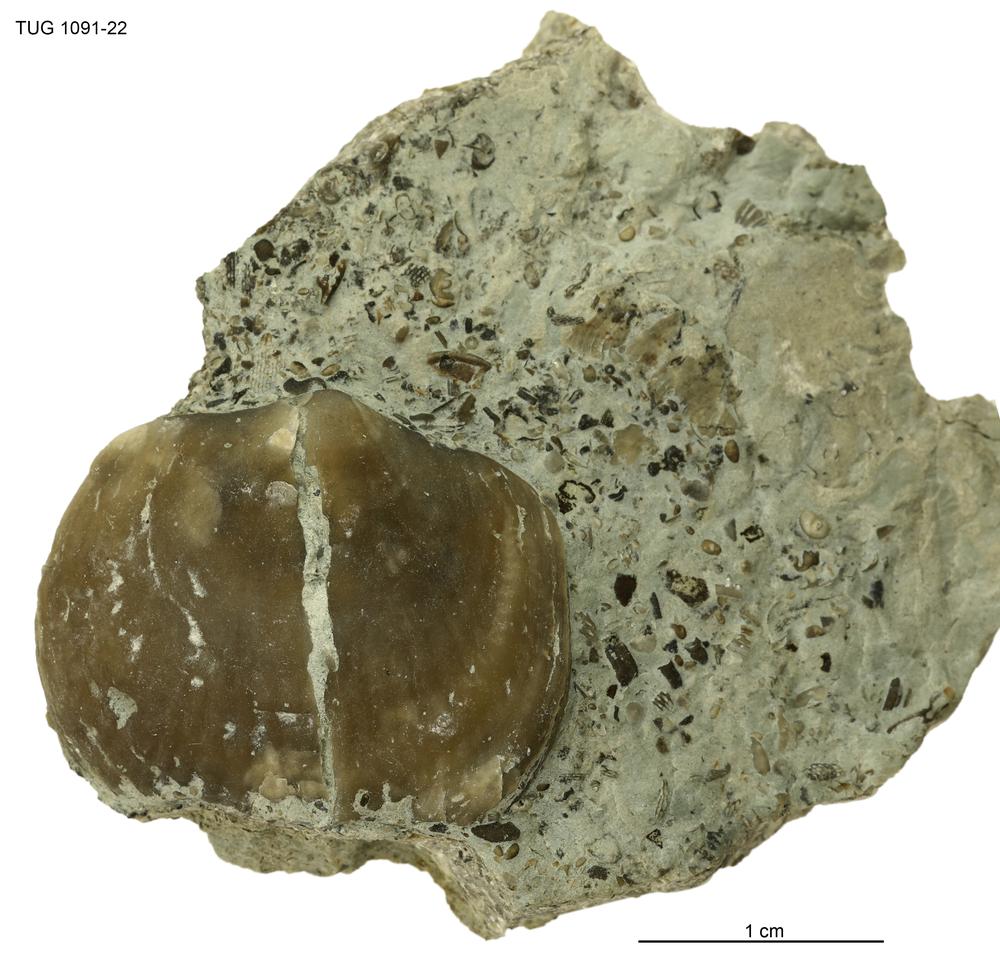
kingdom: Animalia
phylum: Brachiopoda
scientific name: Brachiopoda
